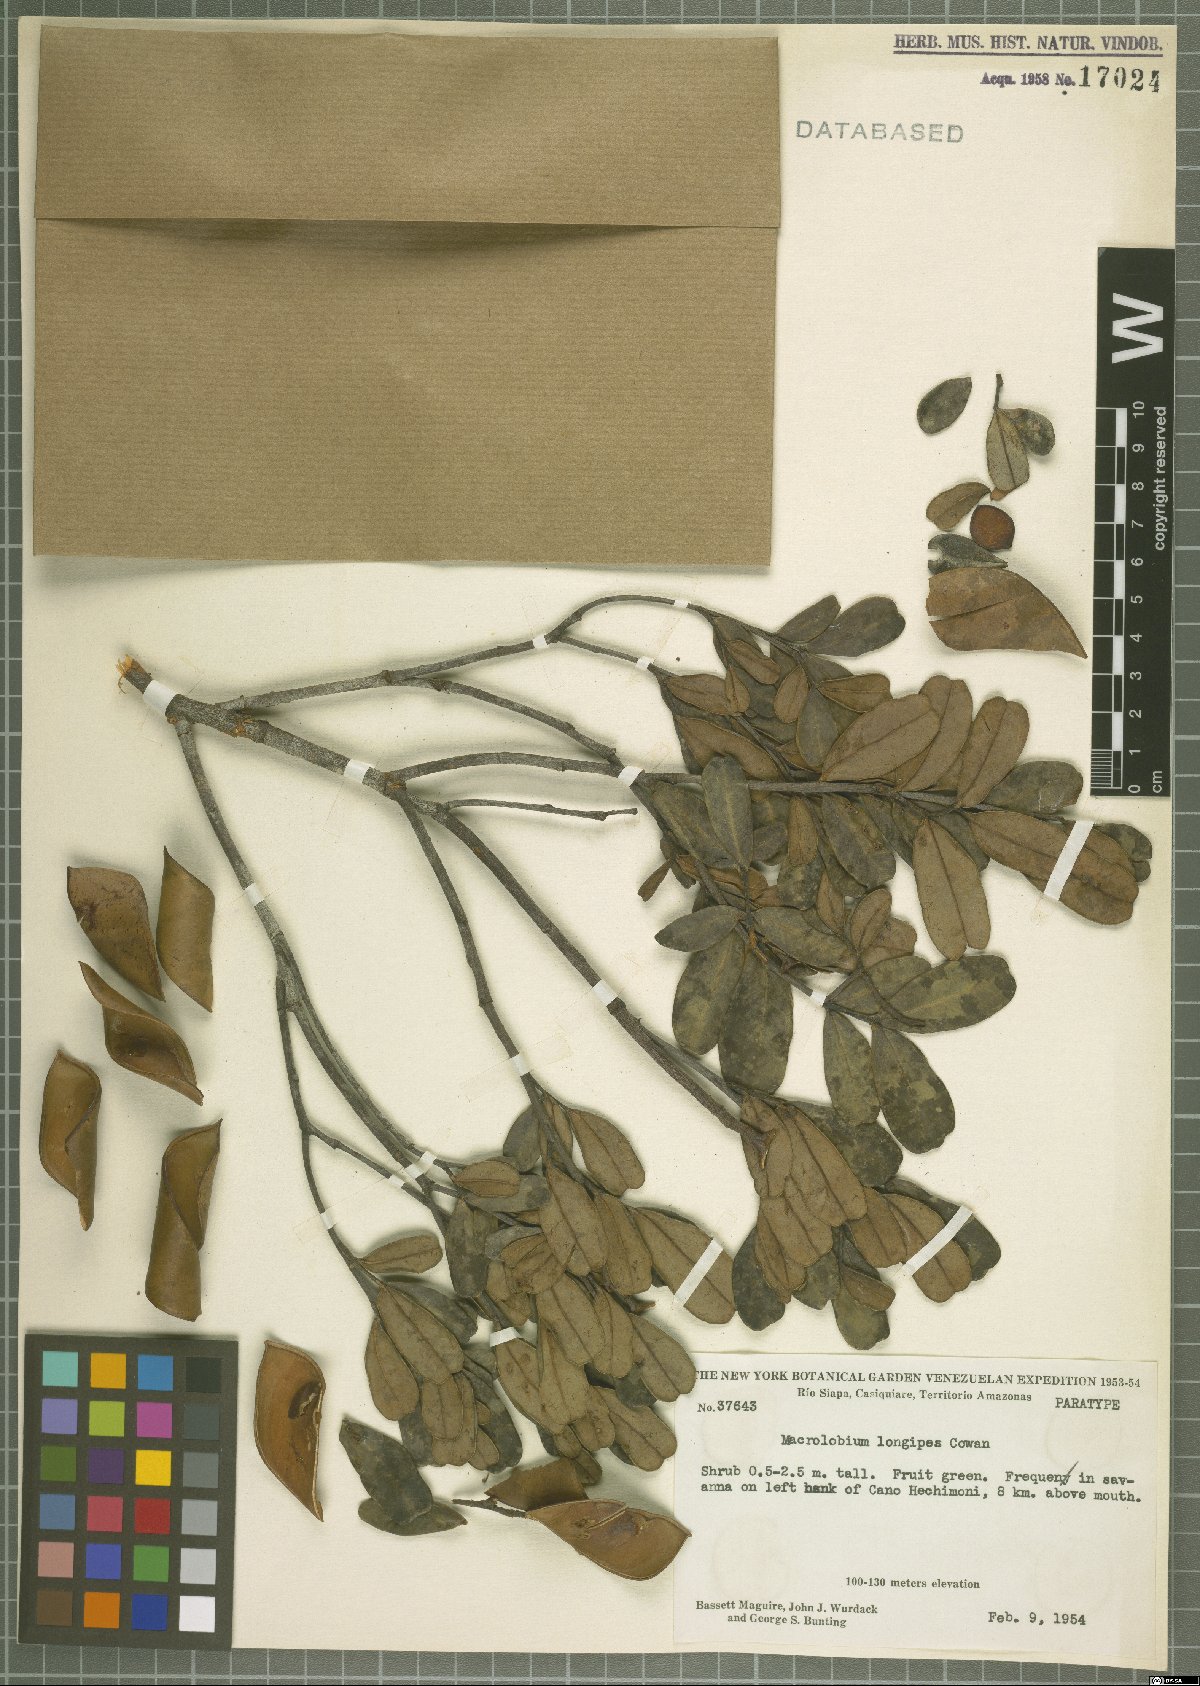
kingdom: Plantae
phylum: Tracheophyta
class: Magnoliopsida
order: Fabales
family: Fabaceae
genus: Macrolobium
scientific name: Macrolobium longipes
